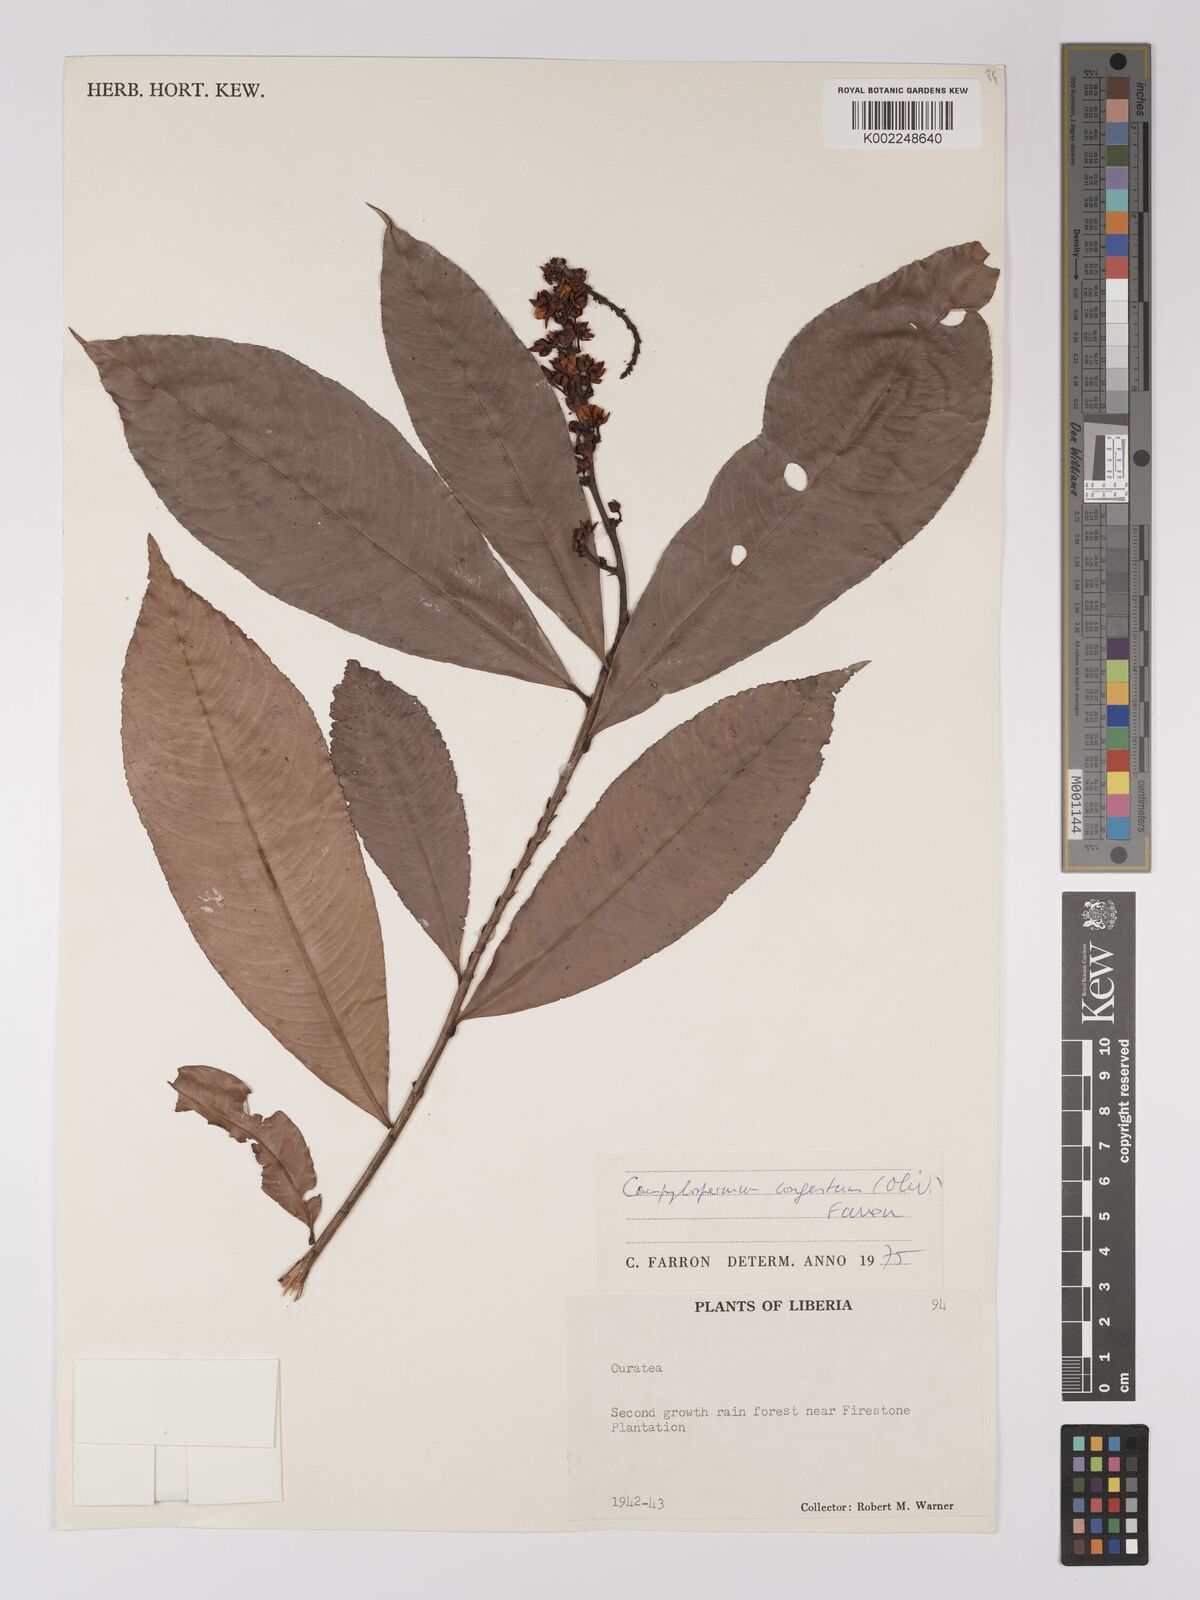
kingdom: Plantae
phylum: Tracheophyta
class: Magnoliopsida
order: Malpighiales
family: Ochnaceae
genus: Campylospermum
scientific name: Campylospermum congestum
